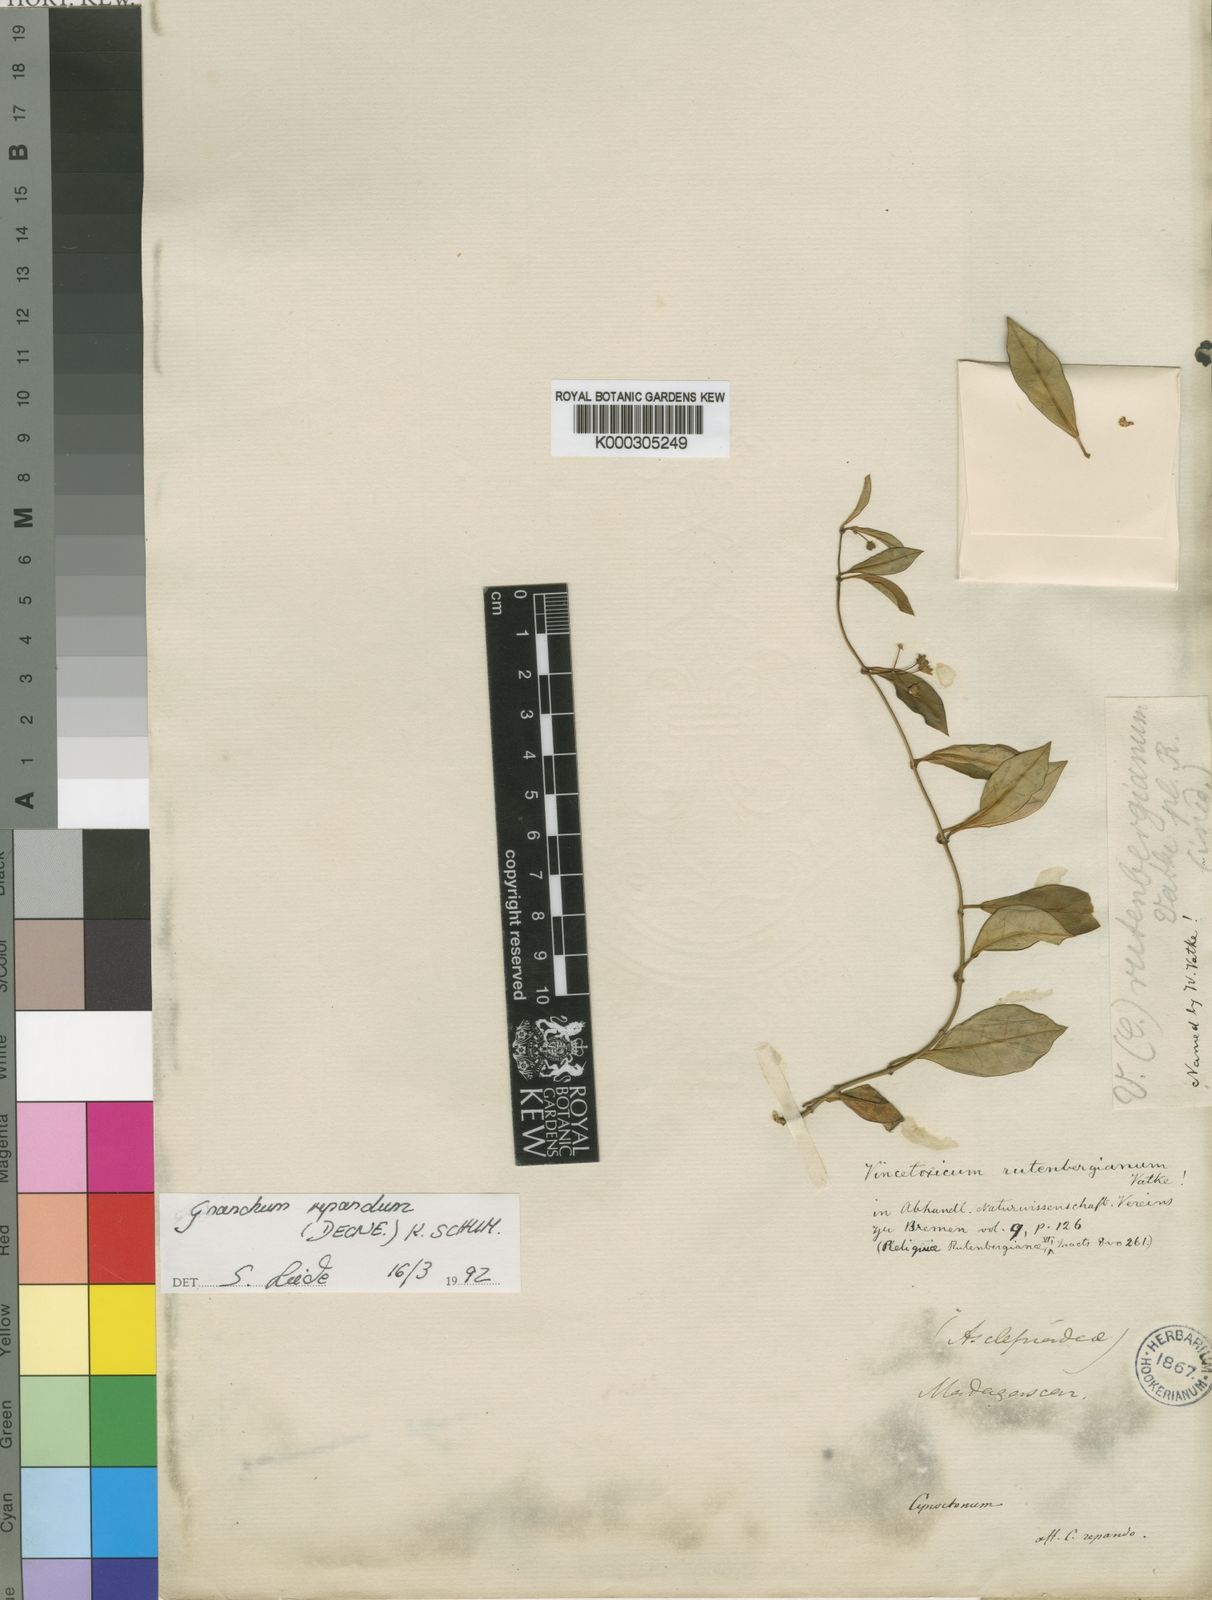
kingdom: Plantae
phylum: Tracheophyta
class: Magnoliopsida
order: Gentianales
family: Apocynaceae
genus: Cynanchum
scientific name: Cynanchum repandum
